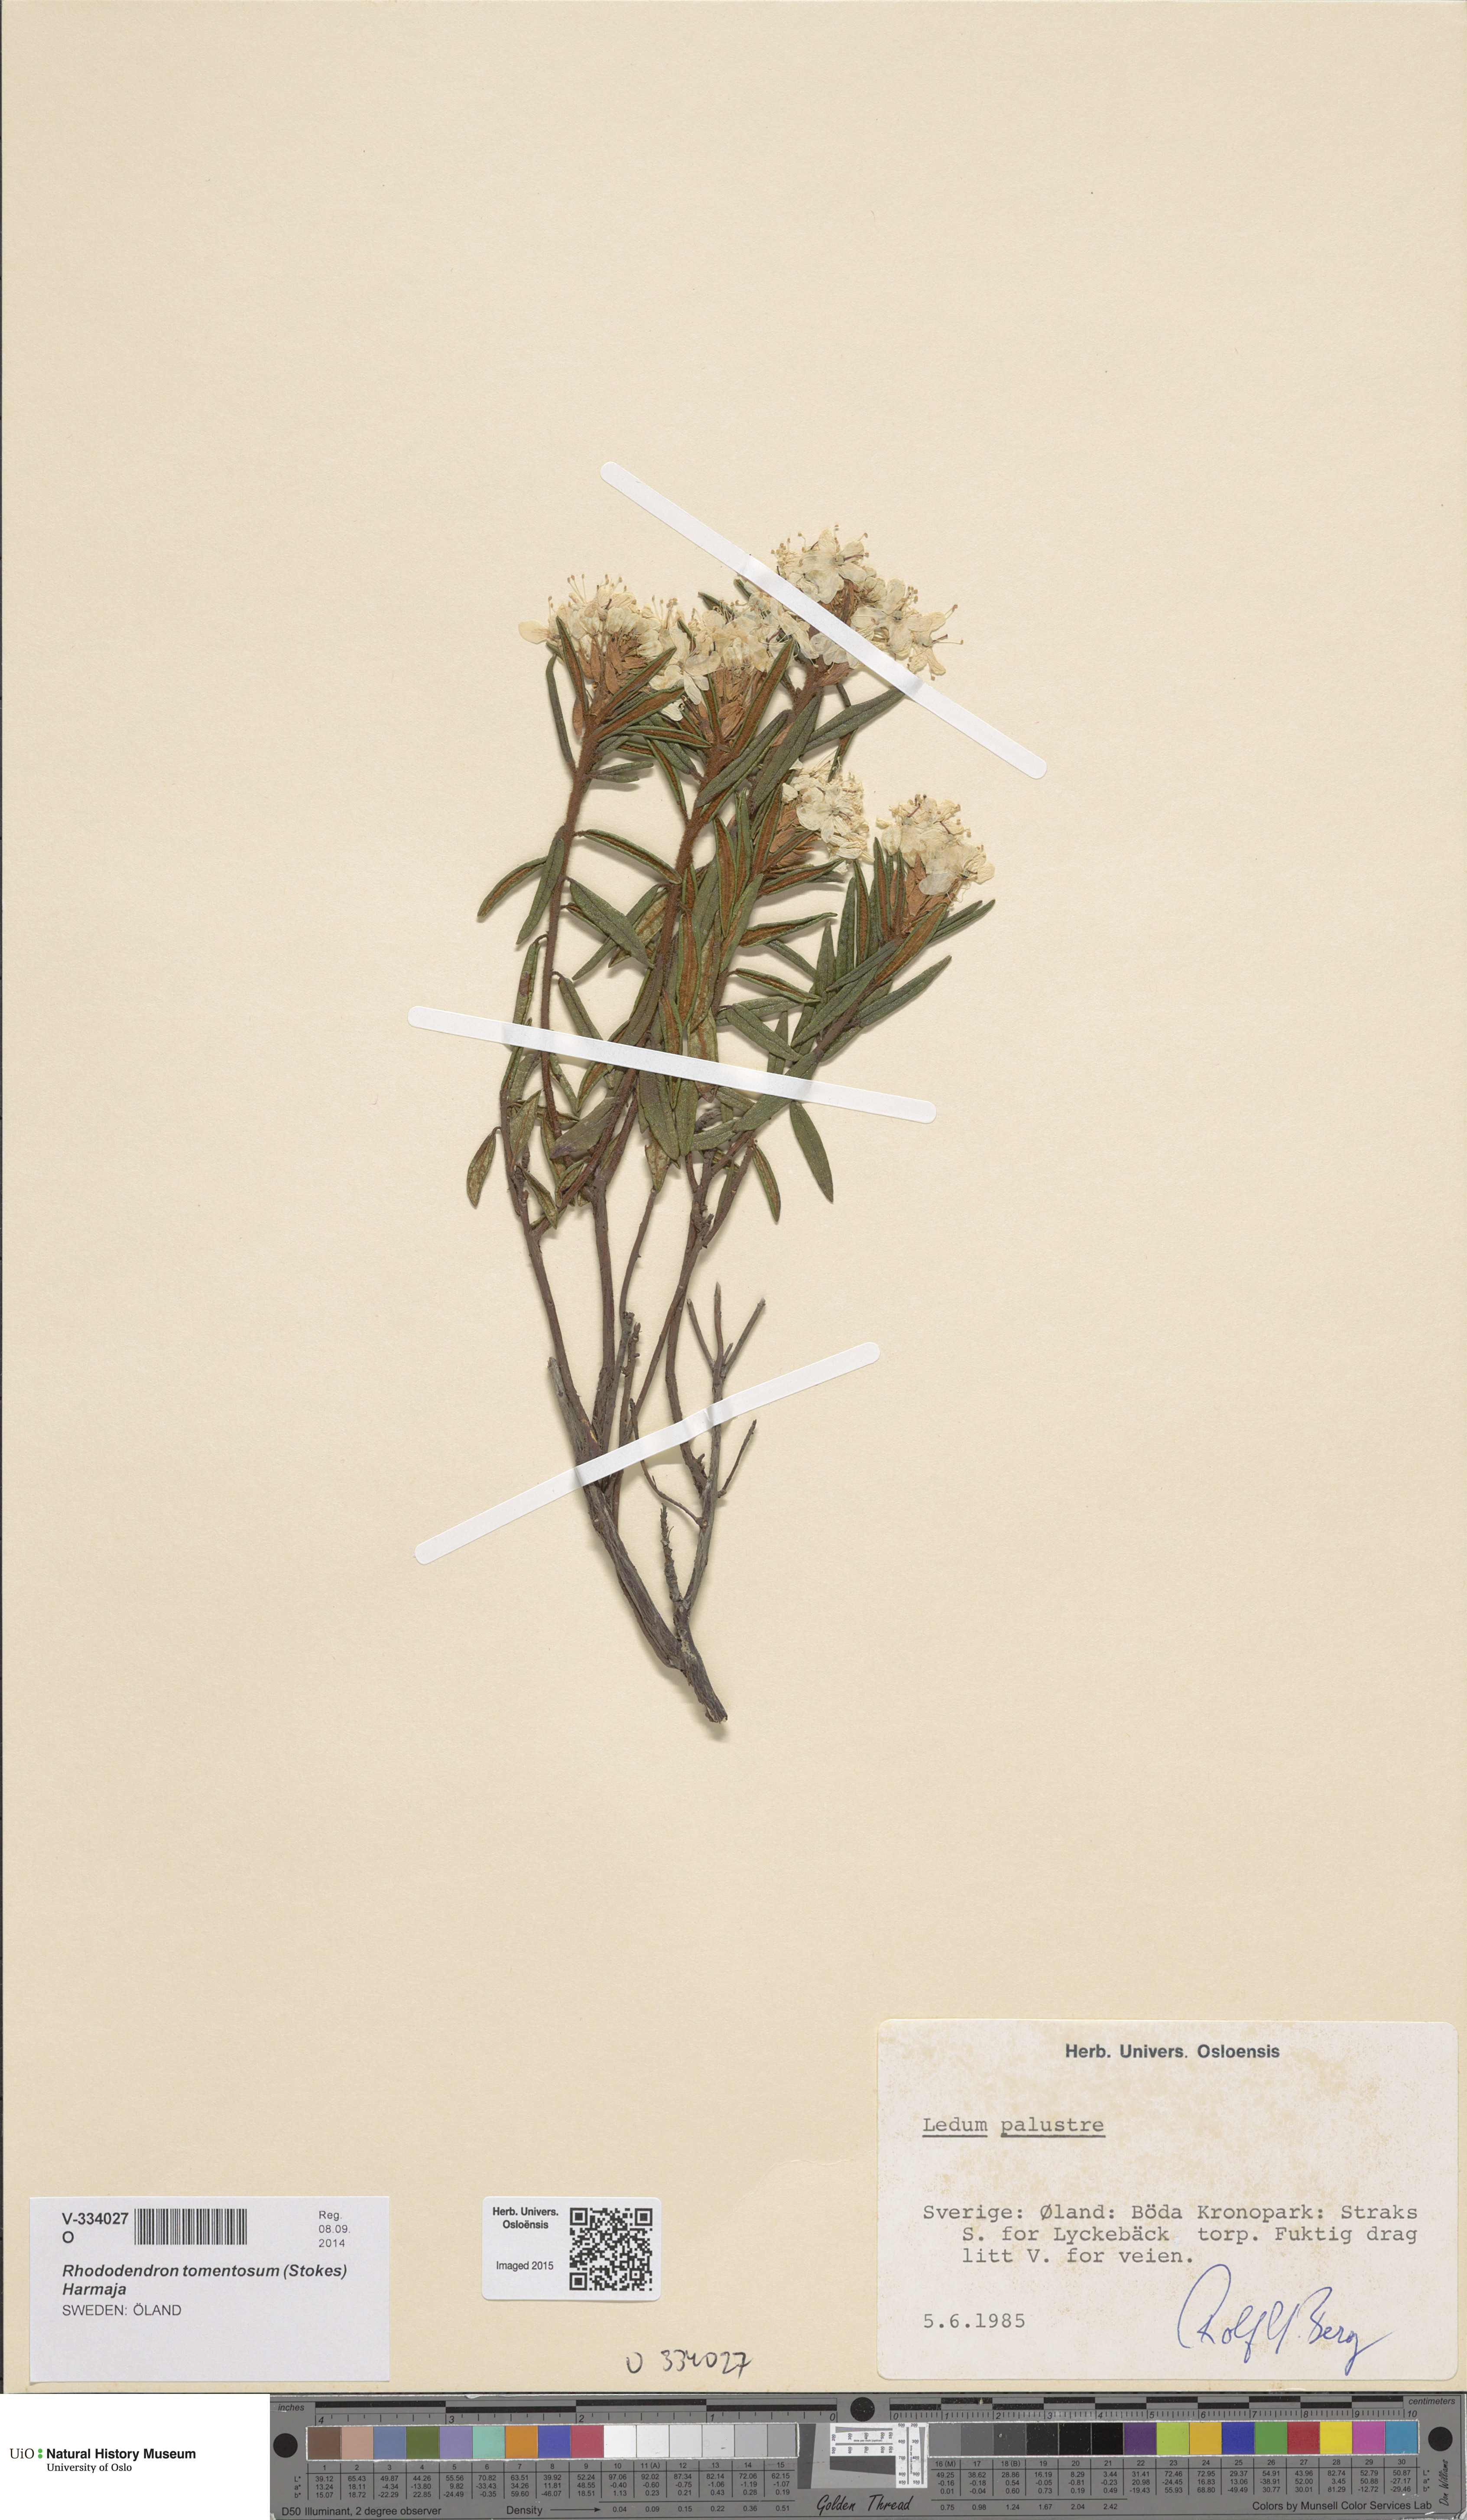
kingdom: Plantae
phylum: Tracheophyta
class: Magnoliopsida
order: Ericales
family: Ericaceae
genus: Rhododendron
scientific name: Rhododendron tomentosum
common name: Marsh labrador tea
